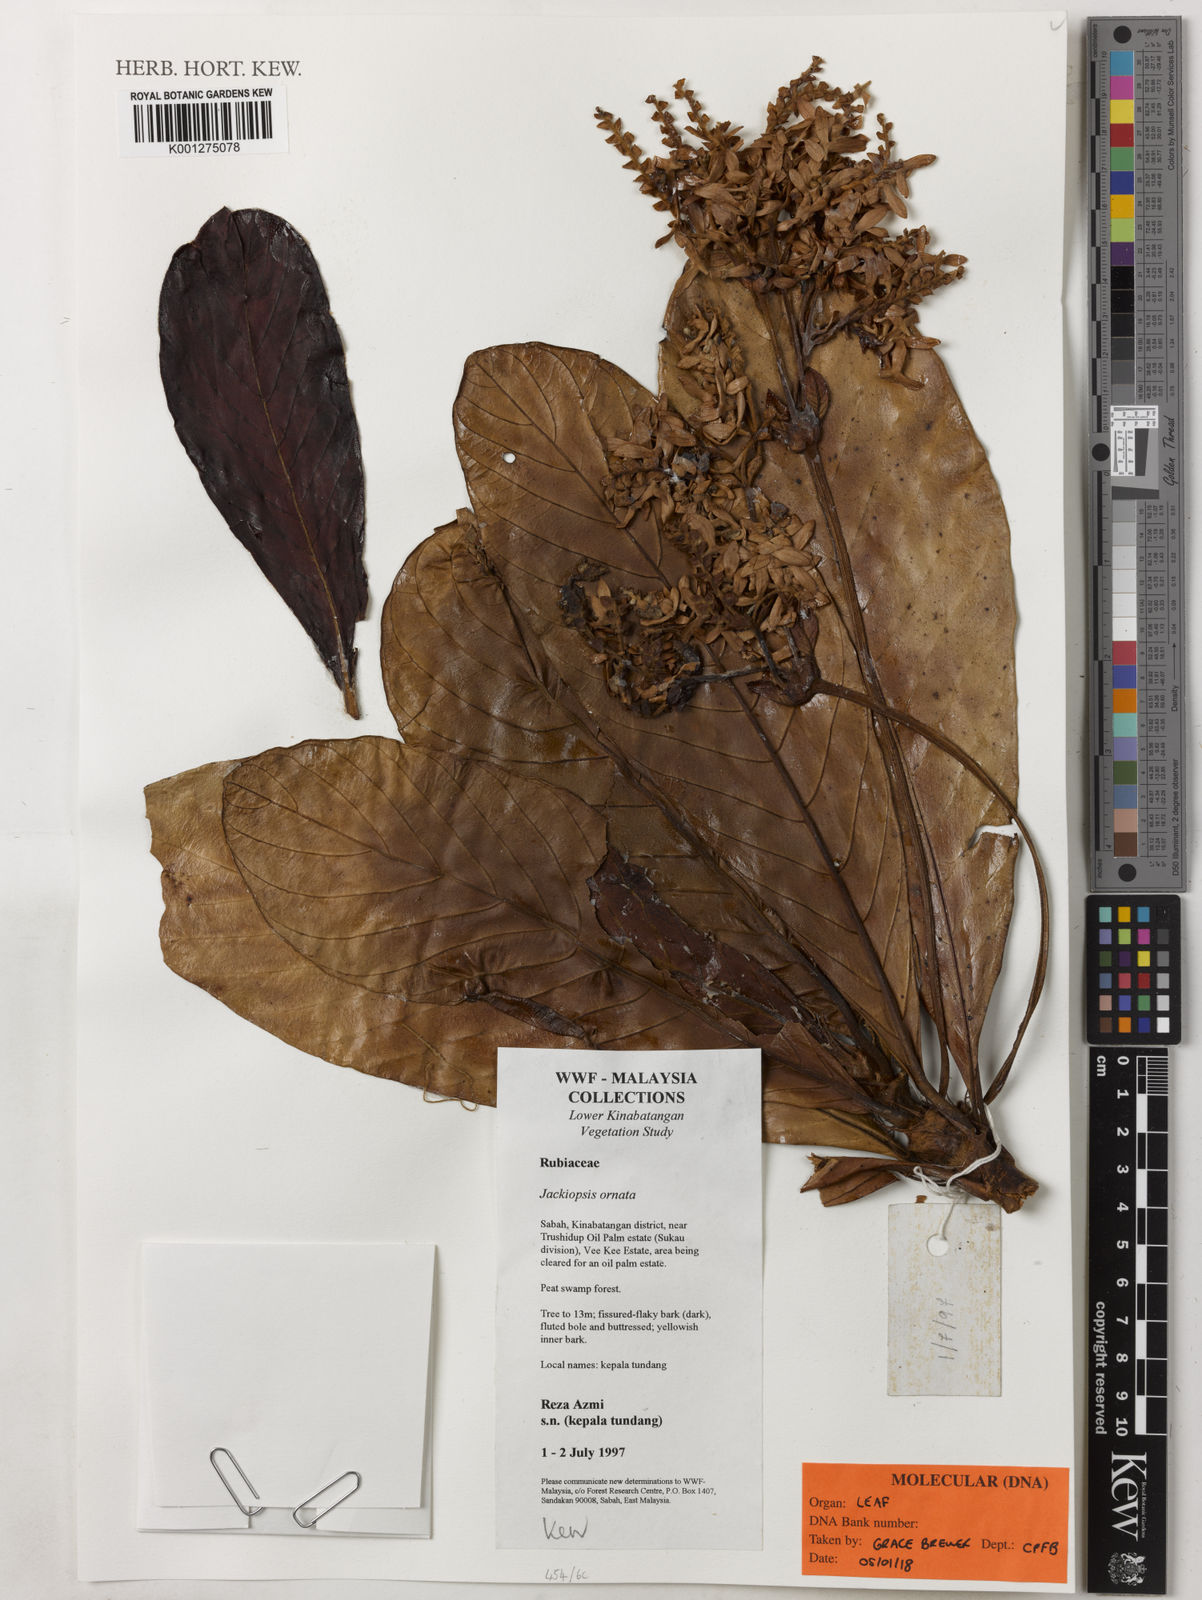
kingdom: Plantae
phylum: Tracheophyta
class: Magnoliopsida
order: Gentianales
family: Rubiaceae
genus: Jackiopsis
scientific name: Jackiopsis ornata
